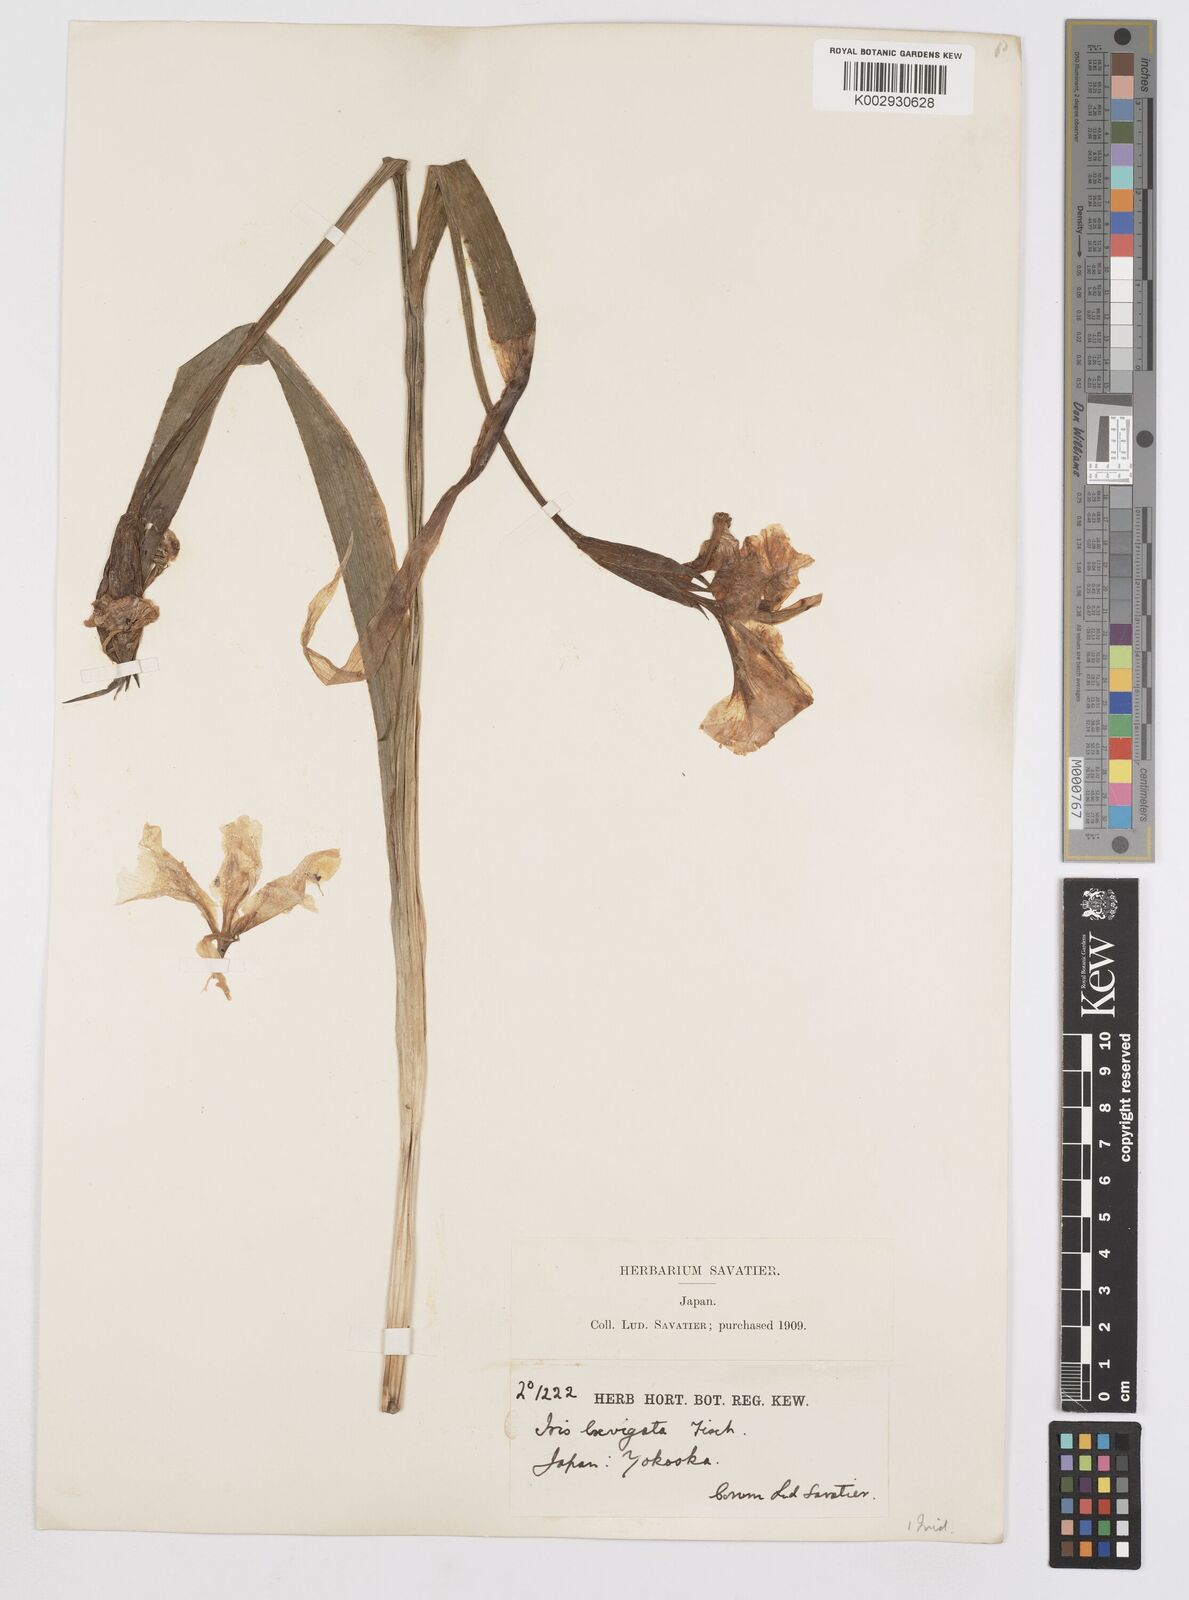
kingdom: Plantae
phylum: Tracheophyta
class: Liliopsida
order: Asparagales
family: Iridaceae
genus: Iris
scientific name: Iris laevigata
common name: Japanese iris
